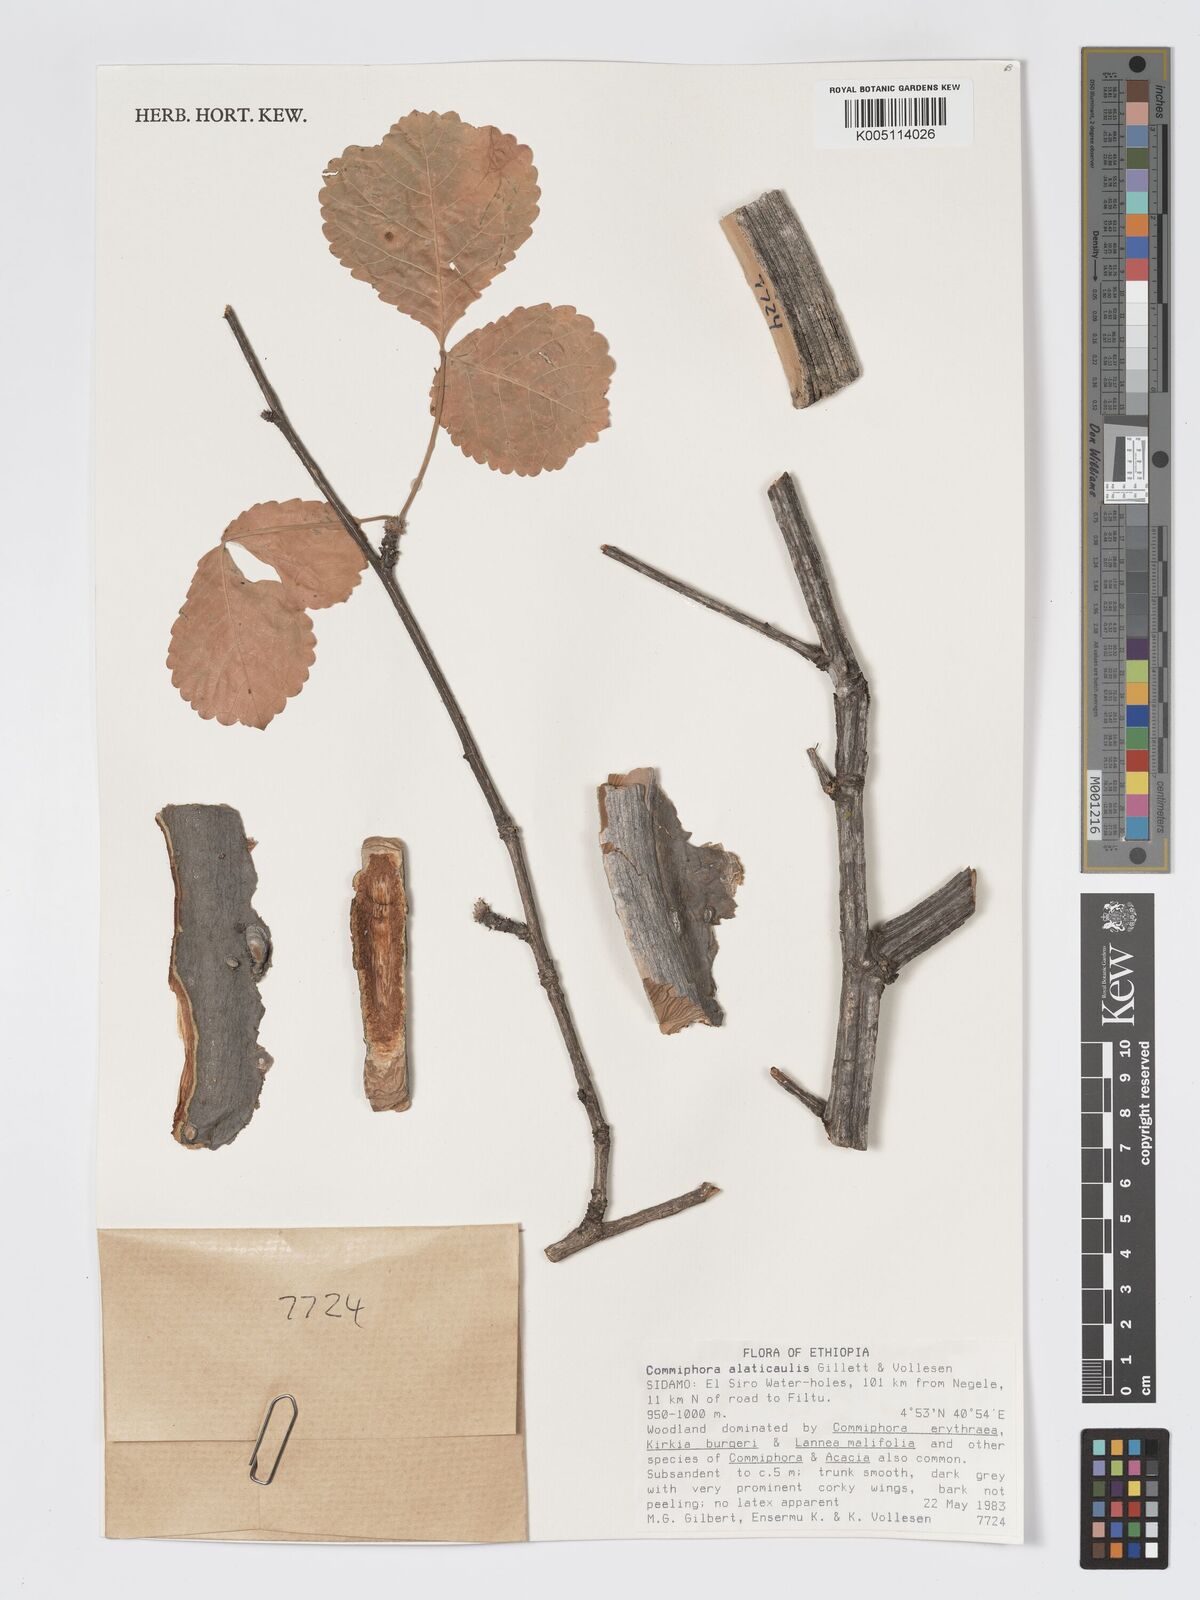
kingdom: Plantae
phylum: Tracheophyta
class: Magnoliopsida
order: Sapindales
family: Burseraceae
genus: Commiphora
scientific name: Commiphora alaticaulis
